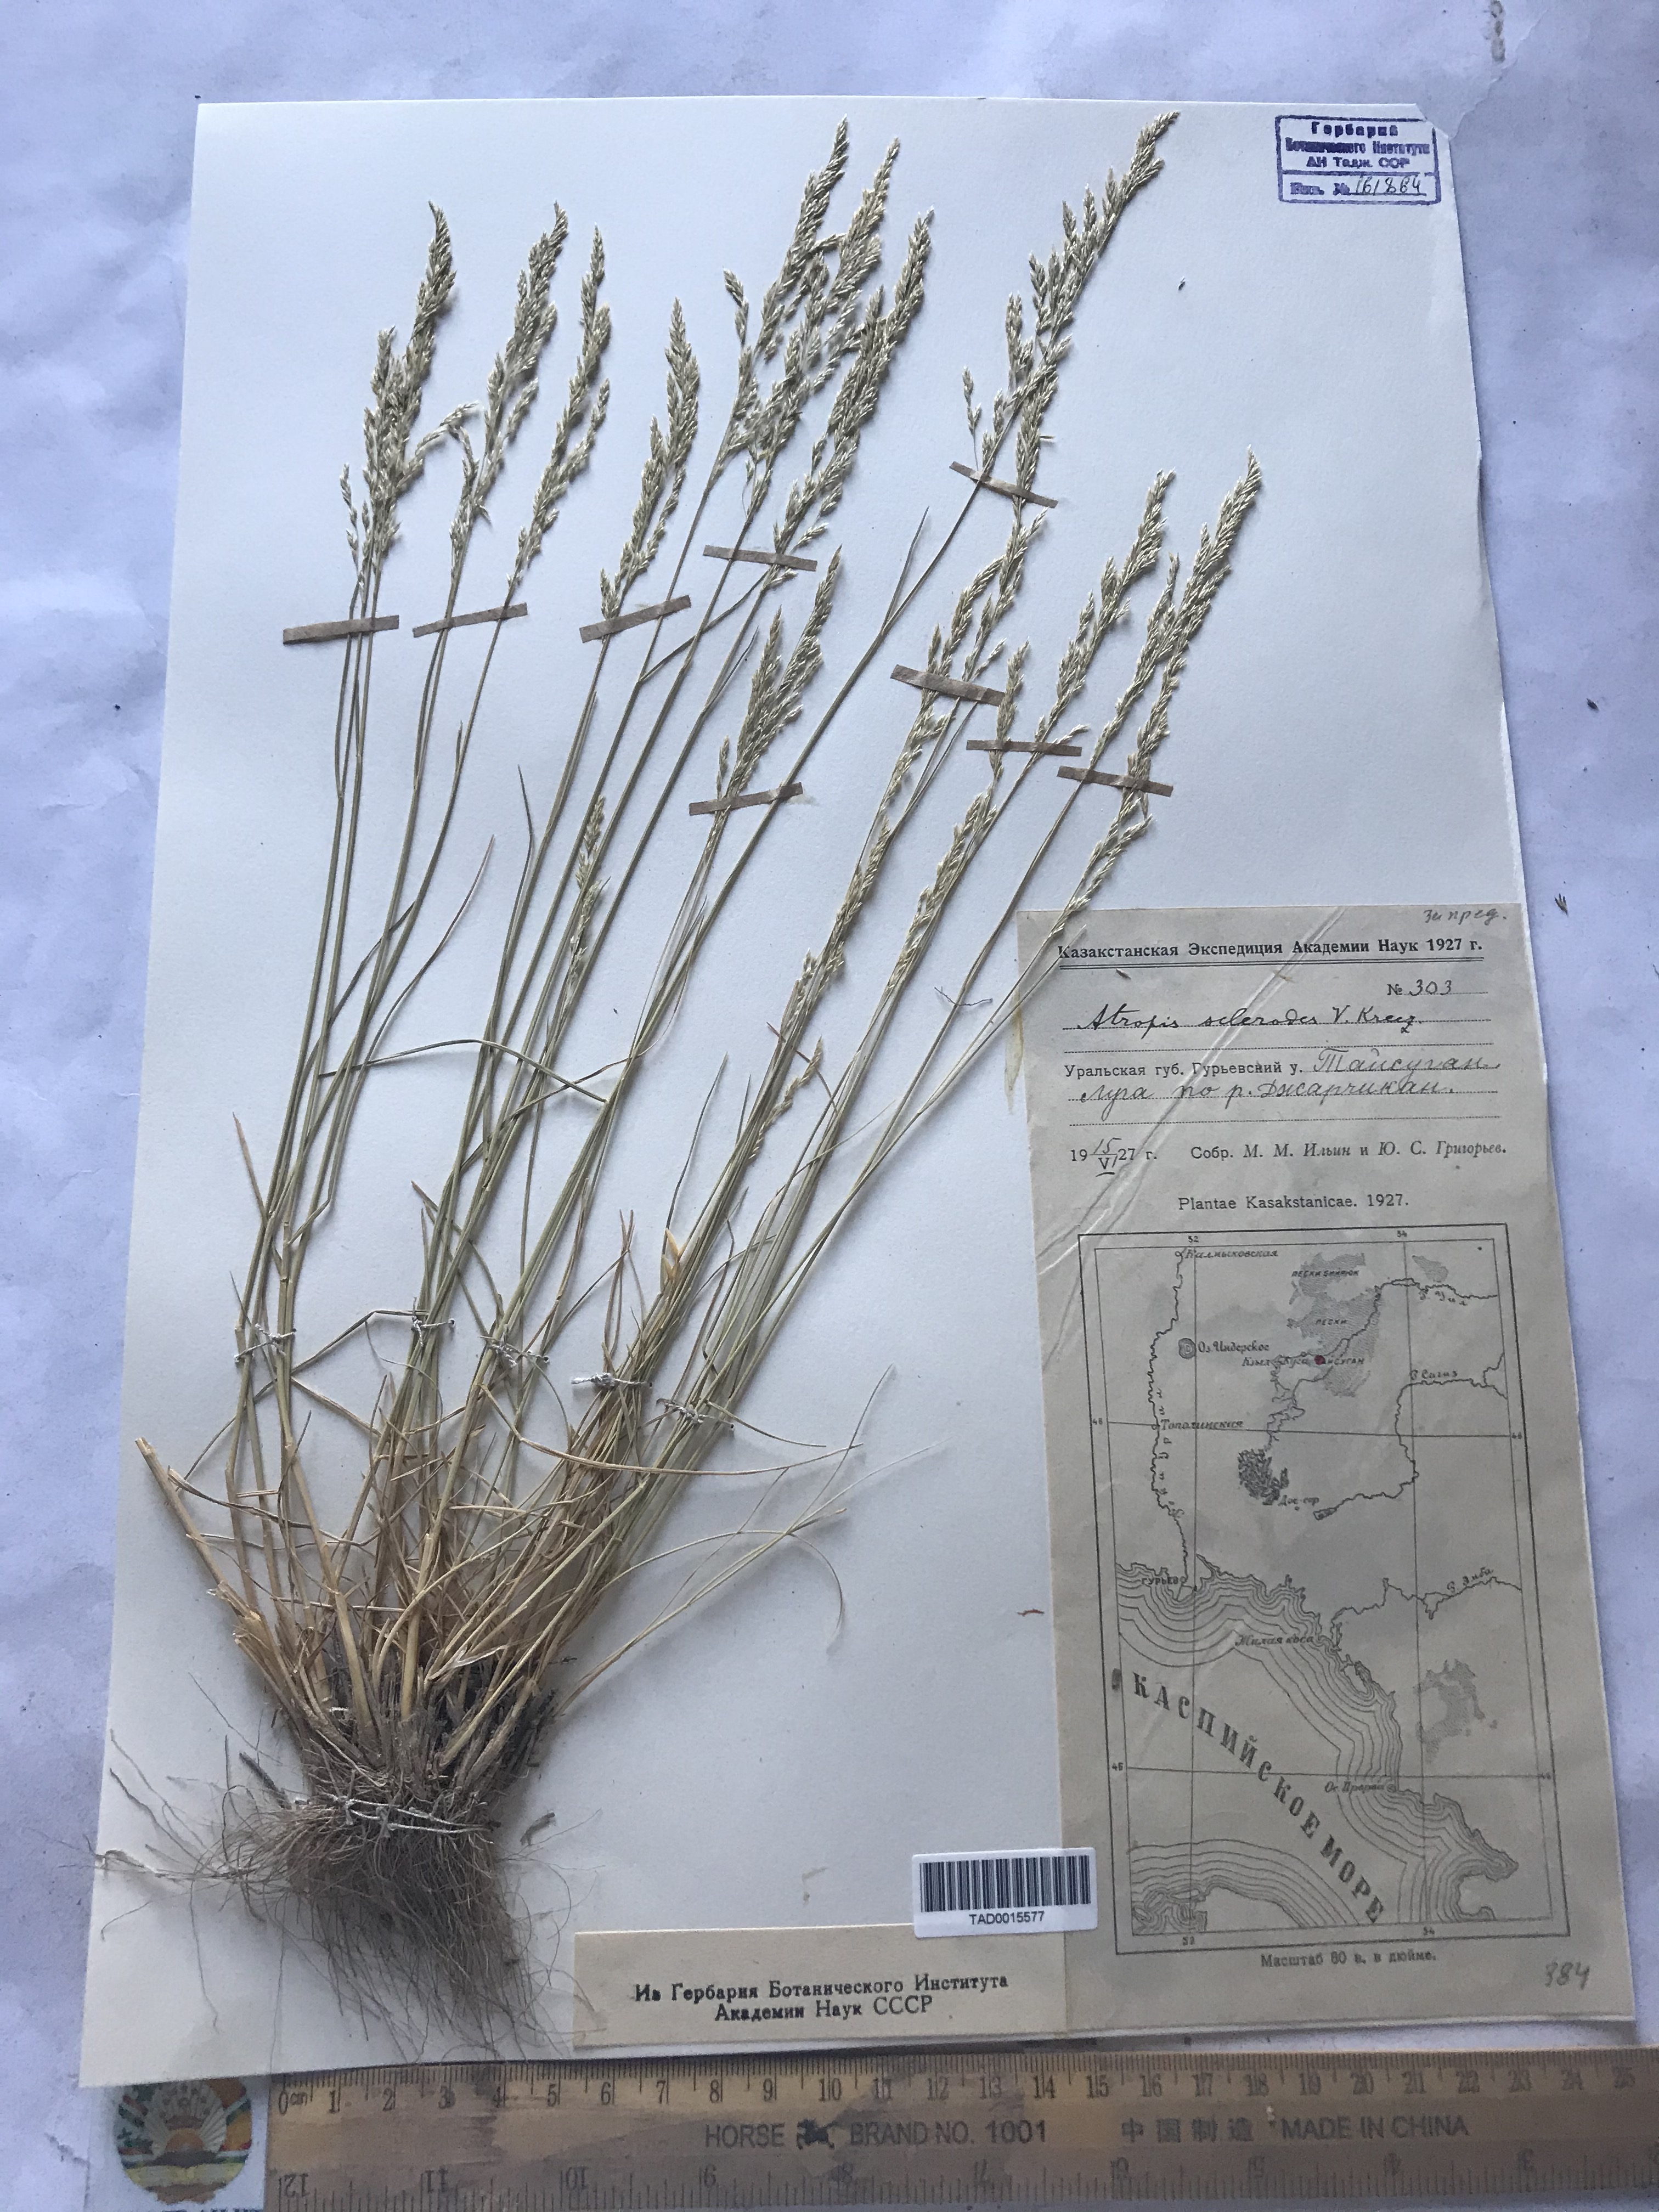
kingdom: Plantae
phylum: Tracheophyta
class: Liliopsida
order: Poales
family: Poaceae
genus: Puccinellia
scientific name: Puccinellia subspicata
